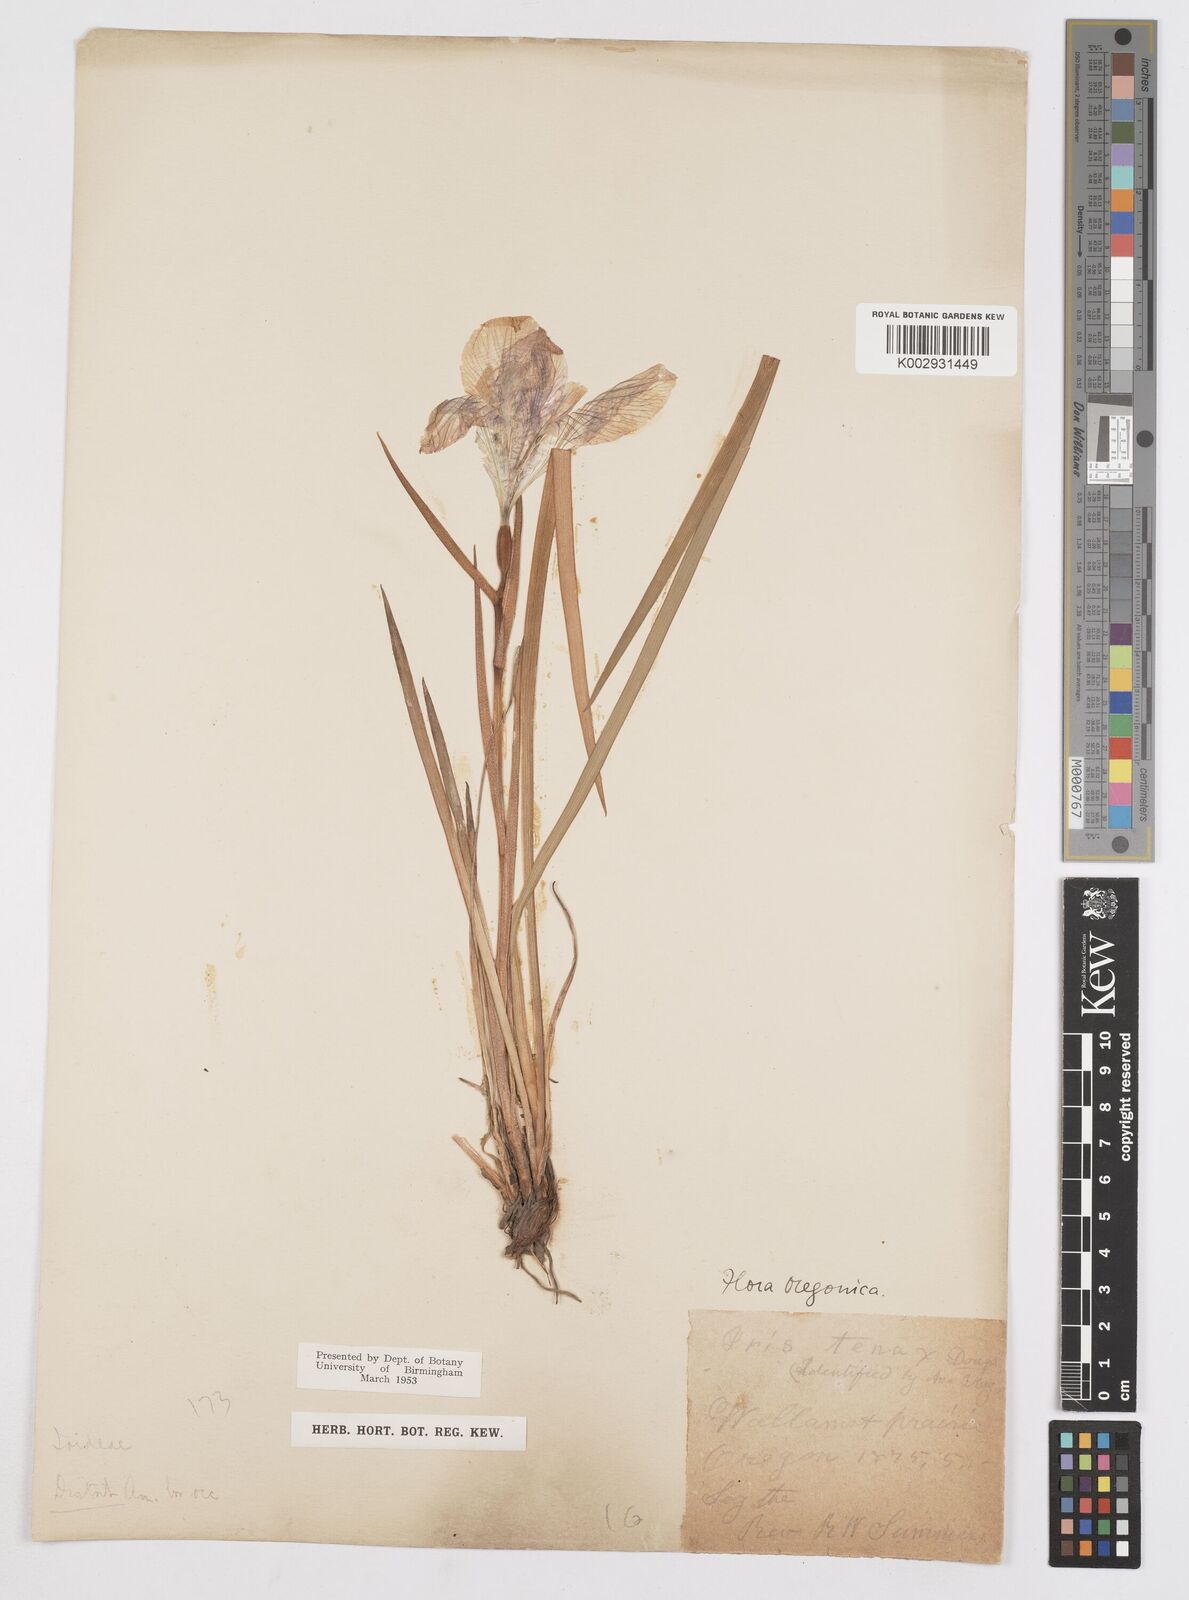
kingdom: Plantae
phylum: Tracheophyta
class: Liliopsida
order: Asparagales
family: Iridaceae
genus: Iris
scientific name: Iris tenax
